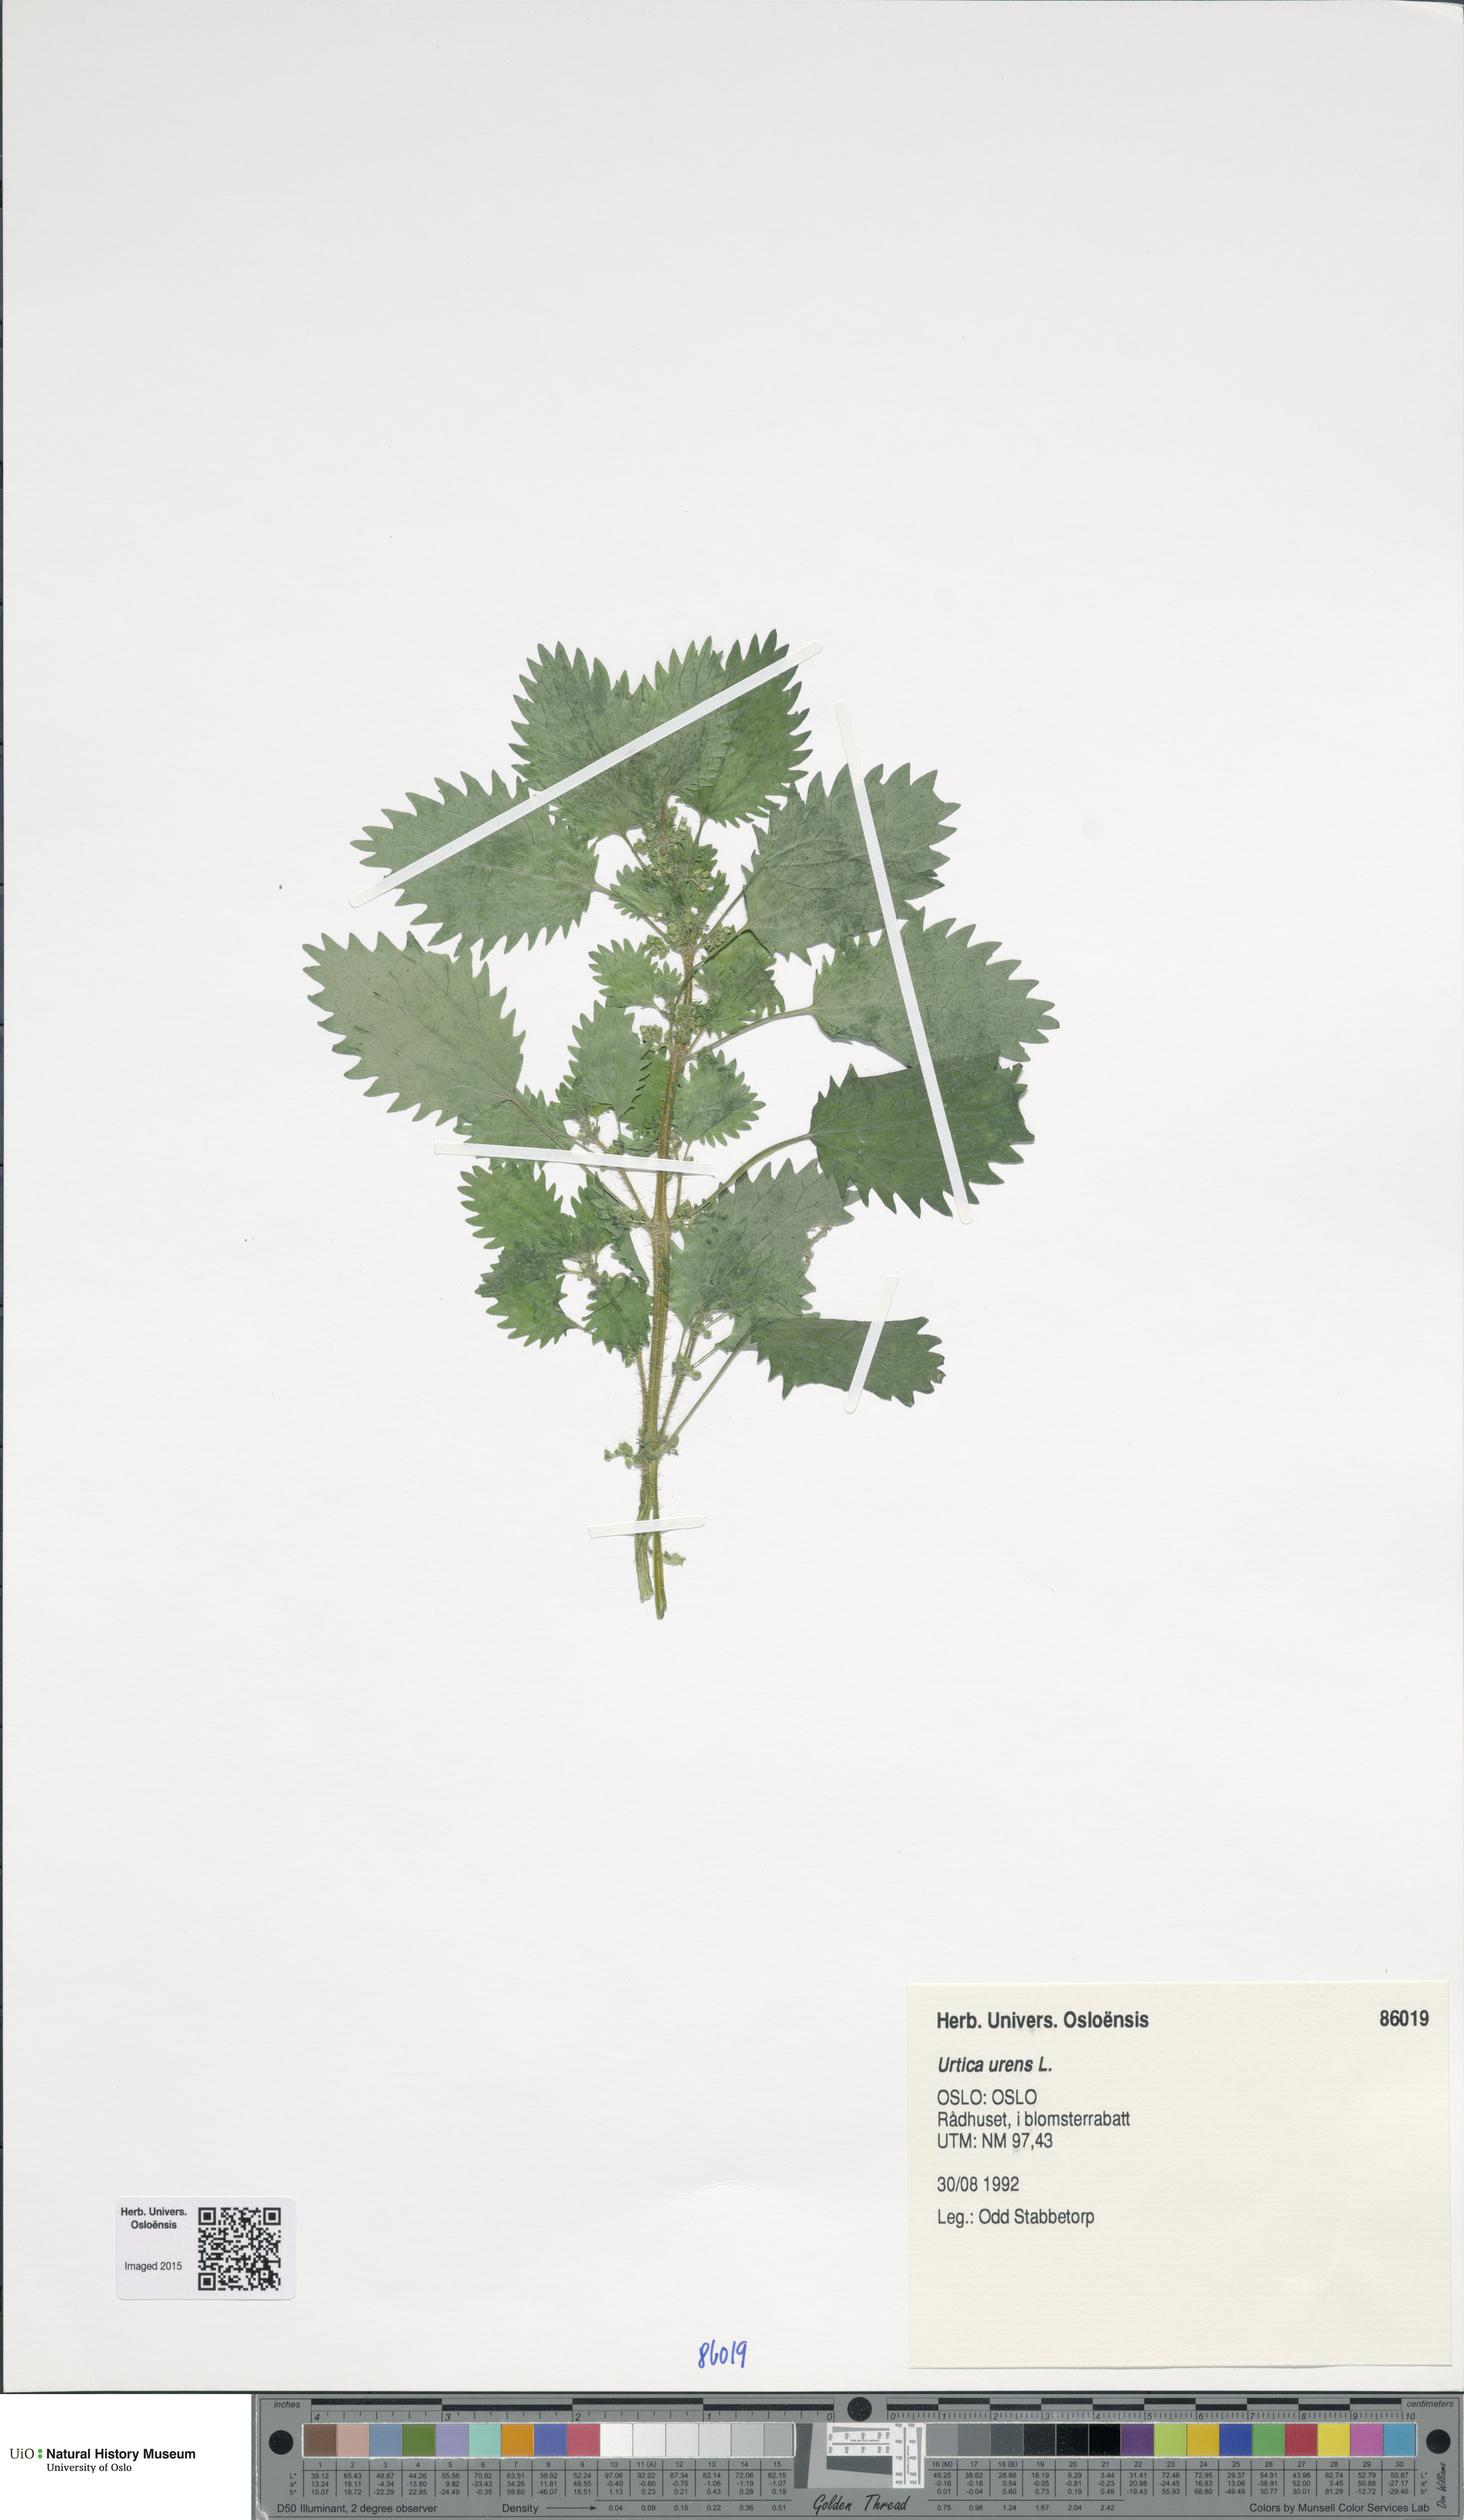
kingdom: Plantae
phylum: Tracheophyta
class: Magnoliopsida
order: Rosales
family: Urticaceae
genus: Urtica
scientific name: Urtica urens
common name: Dwarf nettle
